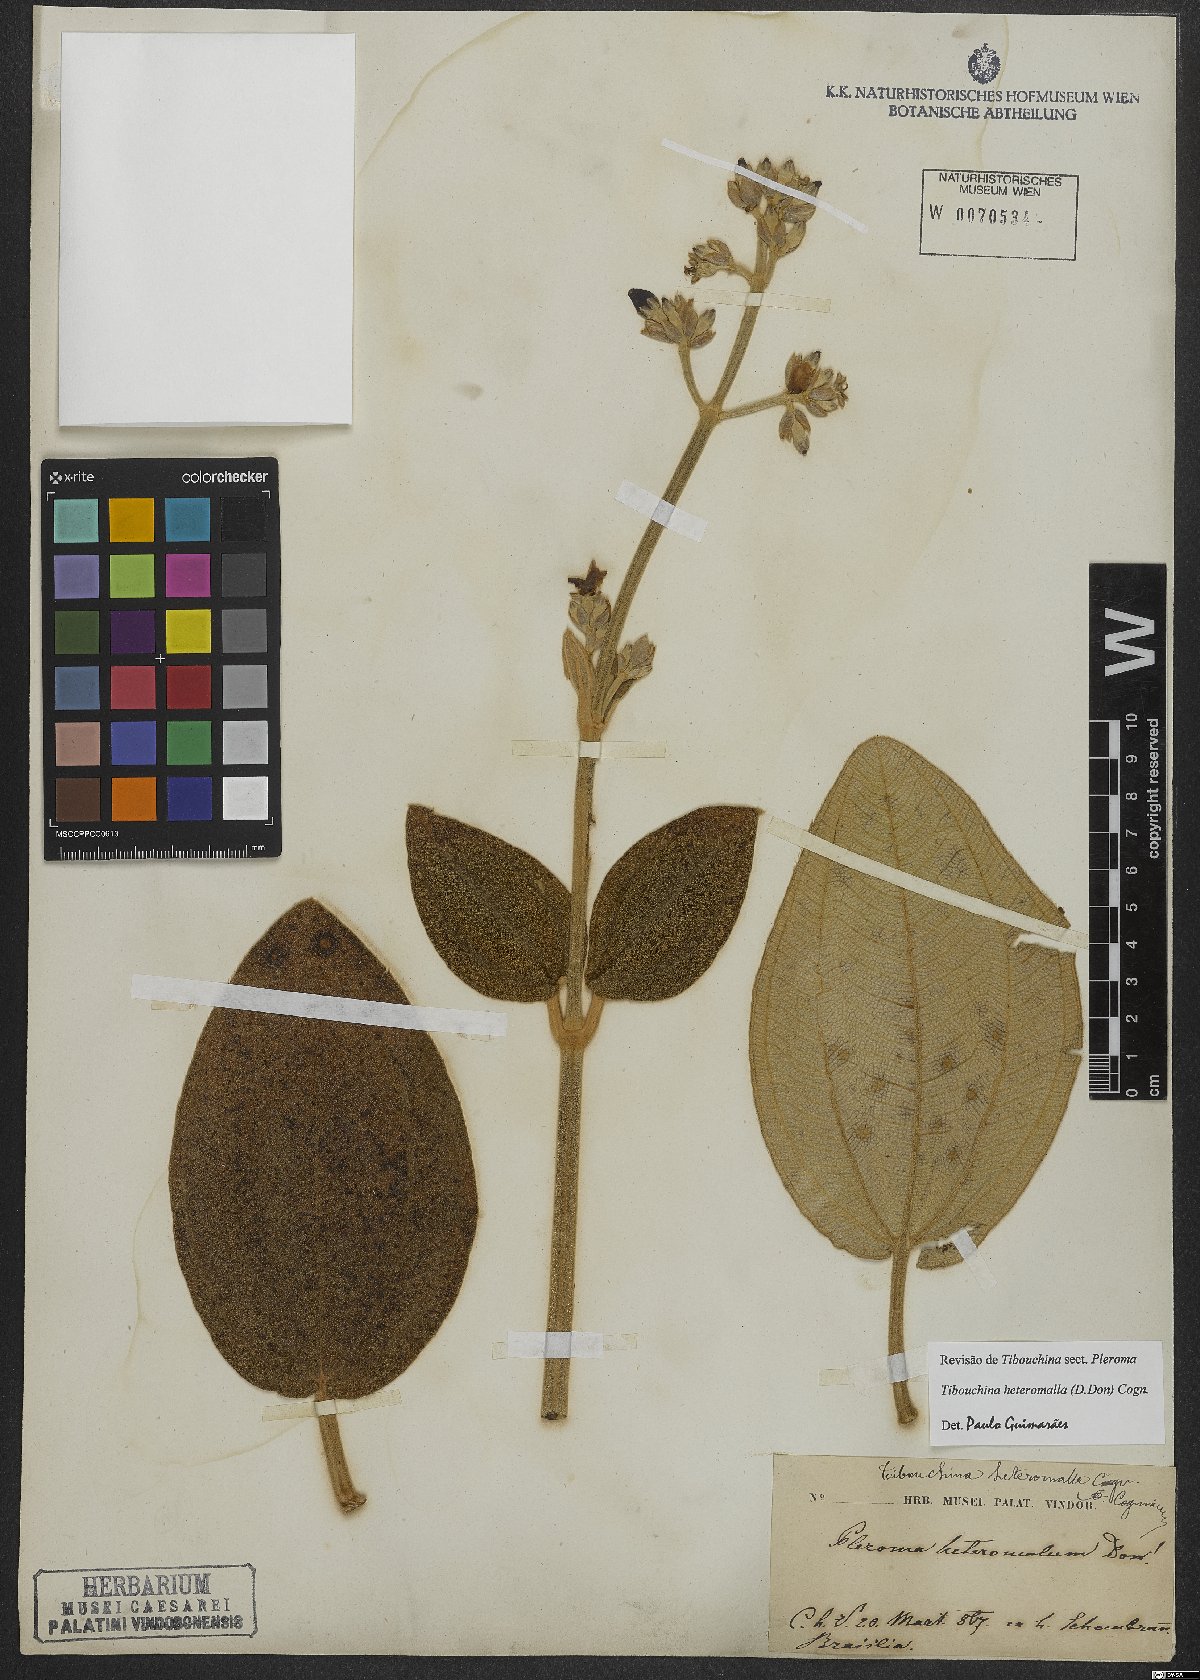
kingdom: Plantae
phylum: Tracheophyta
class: Magnoliopsida
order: Myrtales
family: Melastomataceae
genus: Pleroma
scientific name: Pleroma heteromallum
